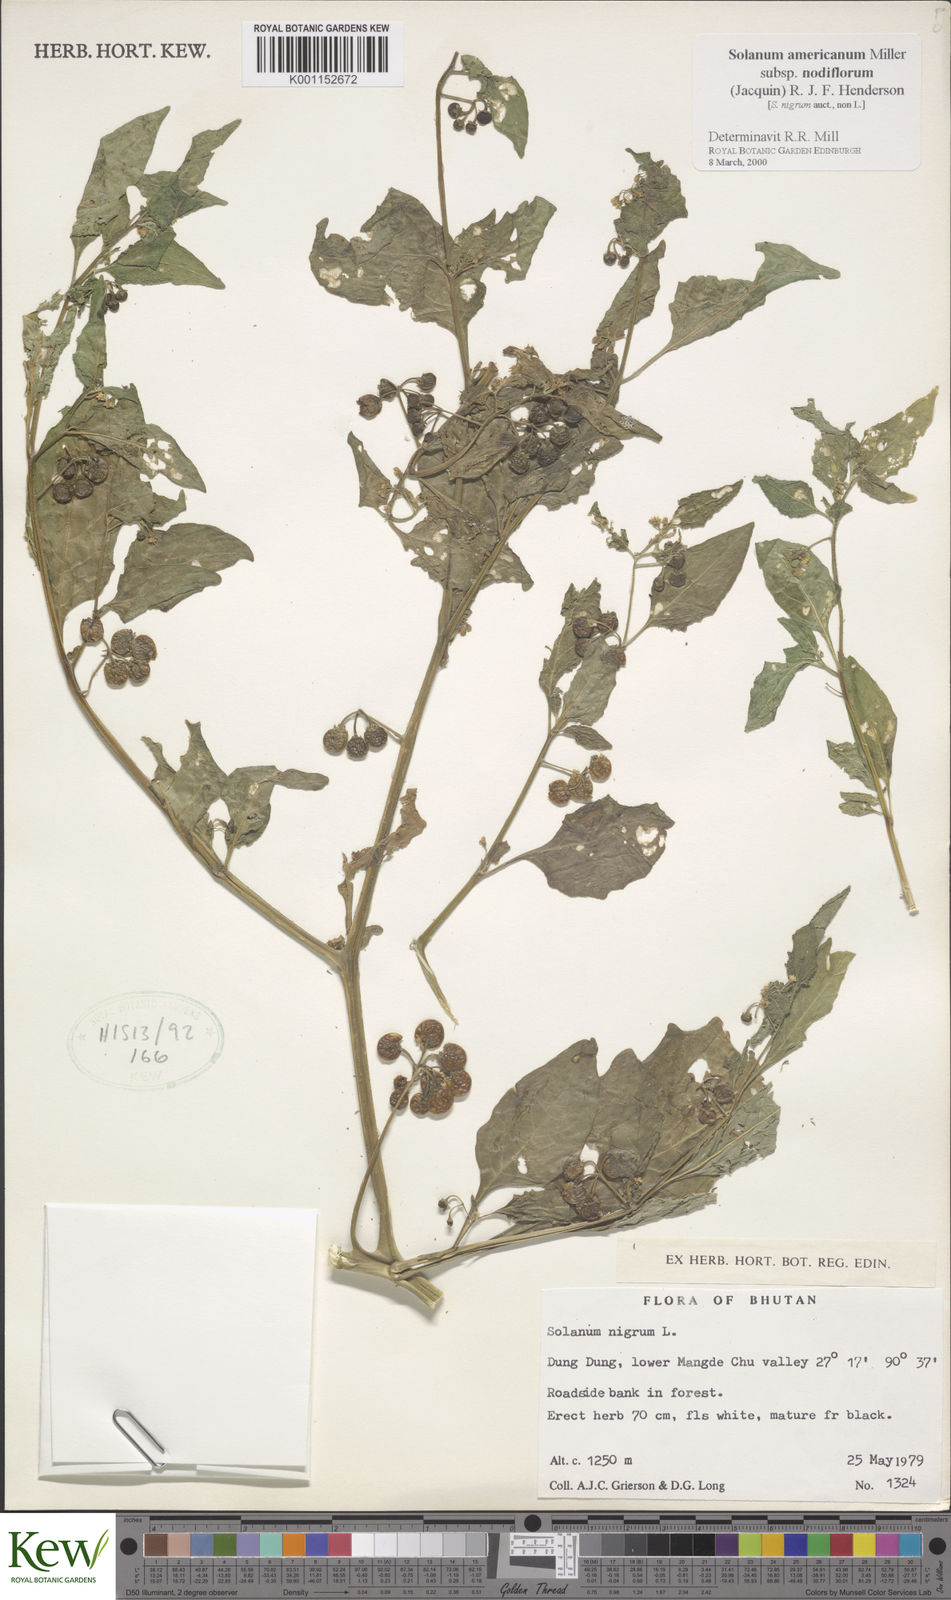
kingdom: Plantae
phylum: Tracheophyta
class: Magnoliopsida
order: Solanales
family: Solanaceae
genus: Solanum
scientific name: Solanum nigrum
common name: Black nightshade
